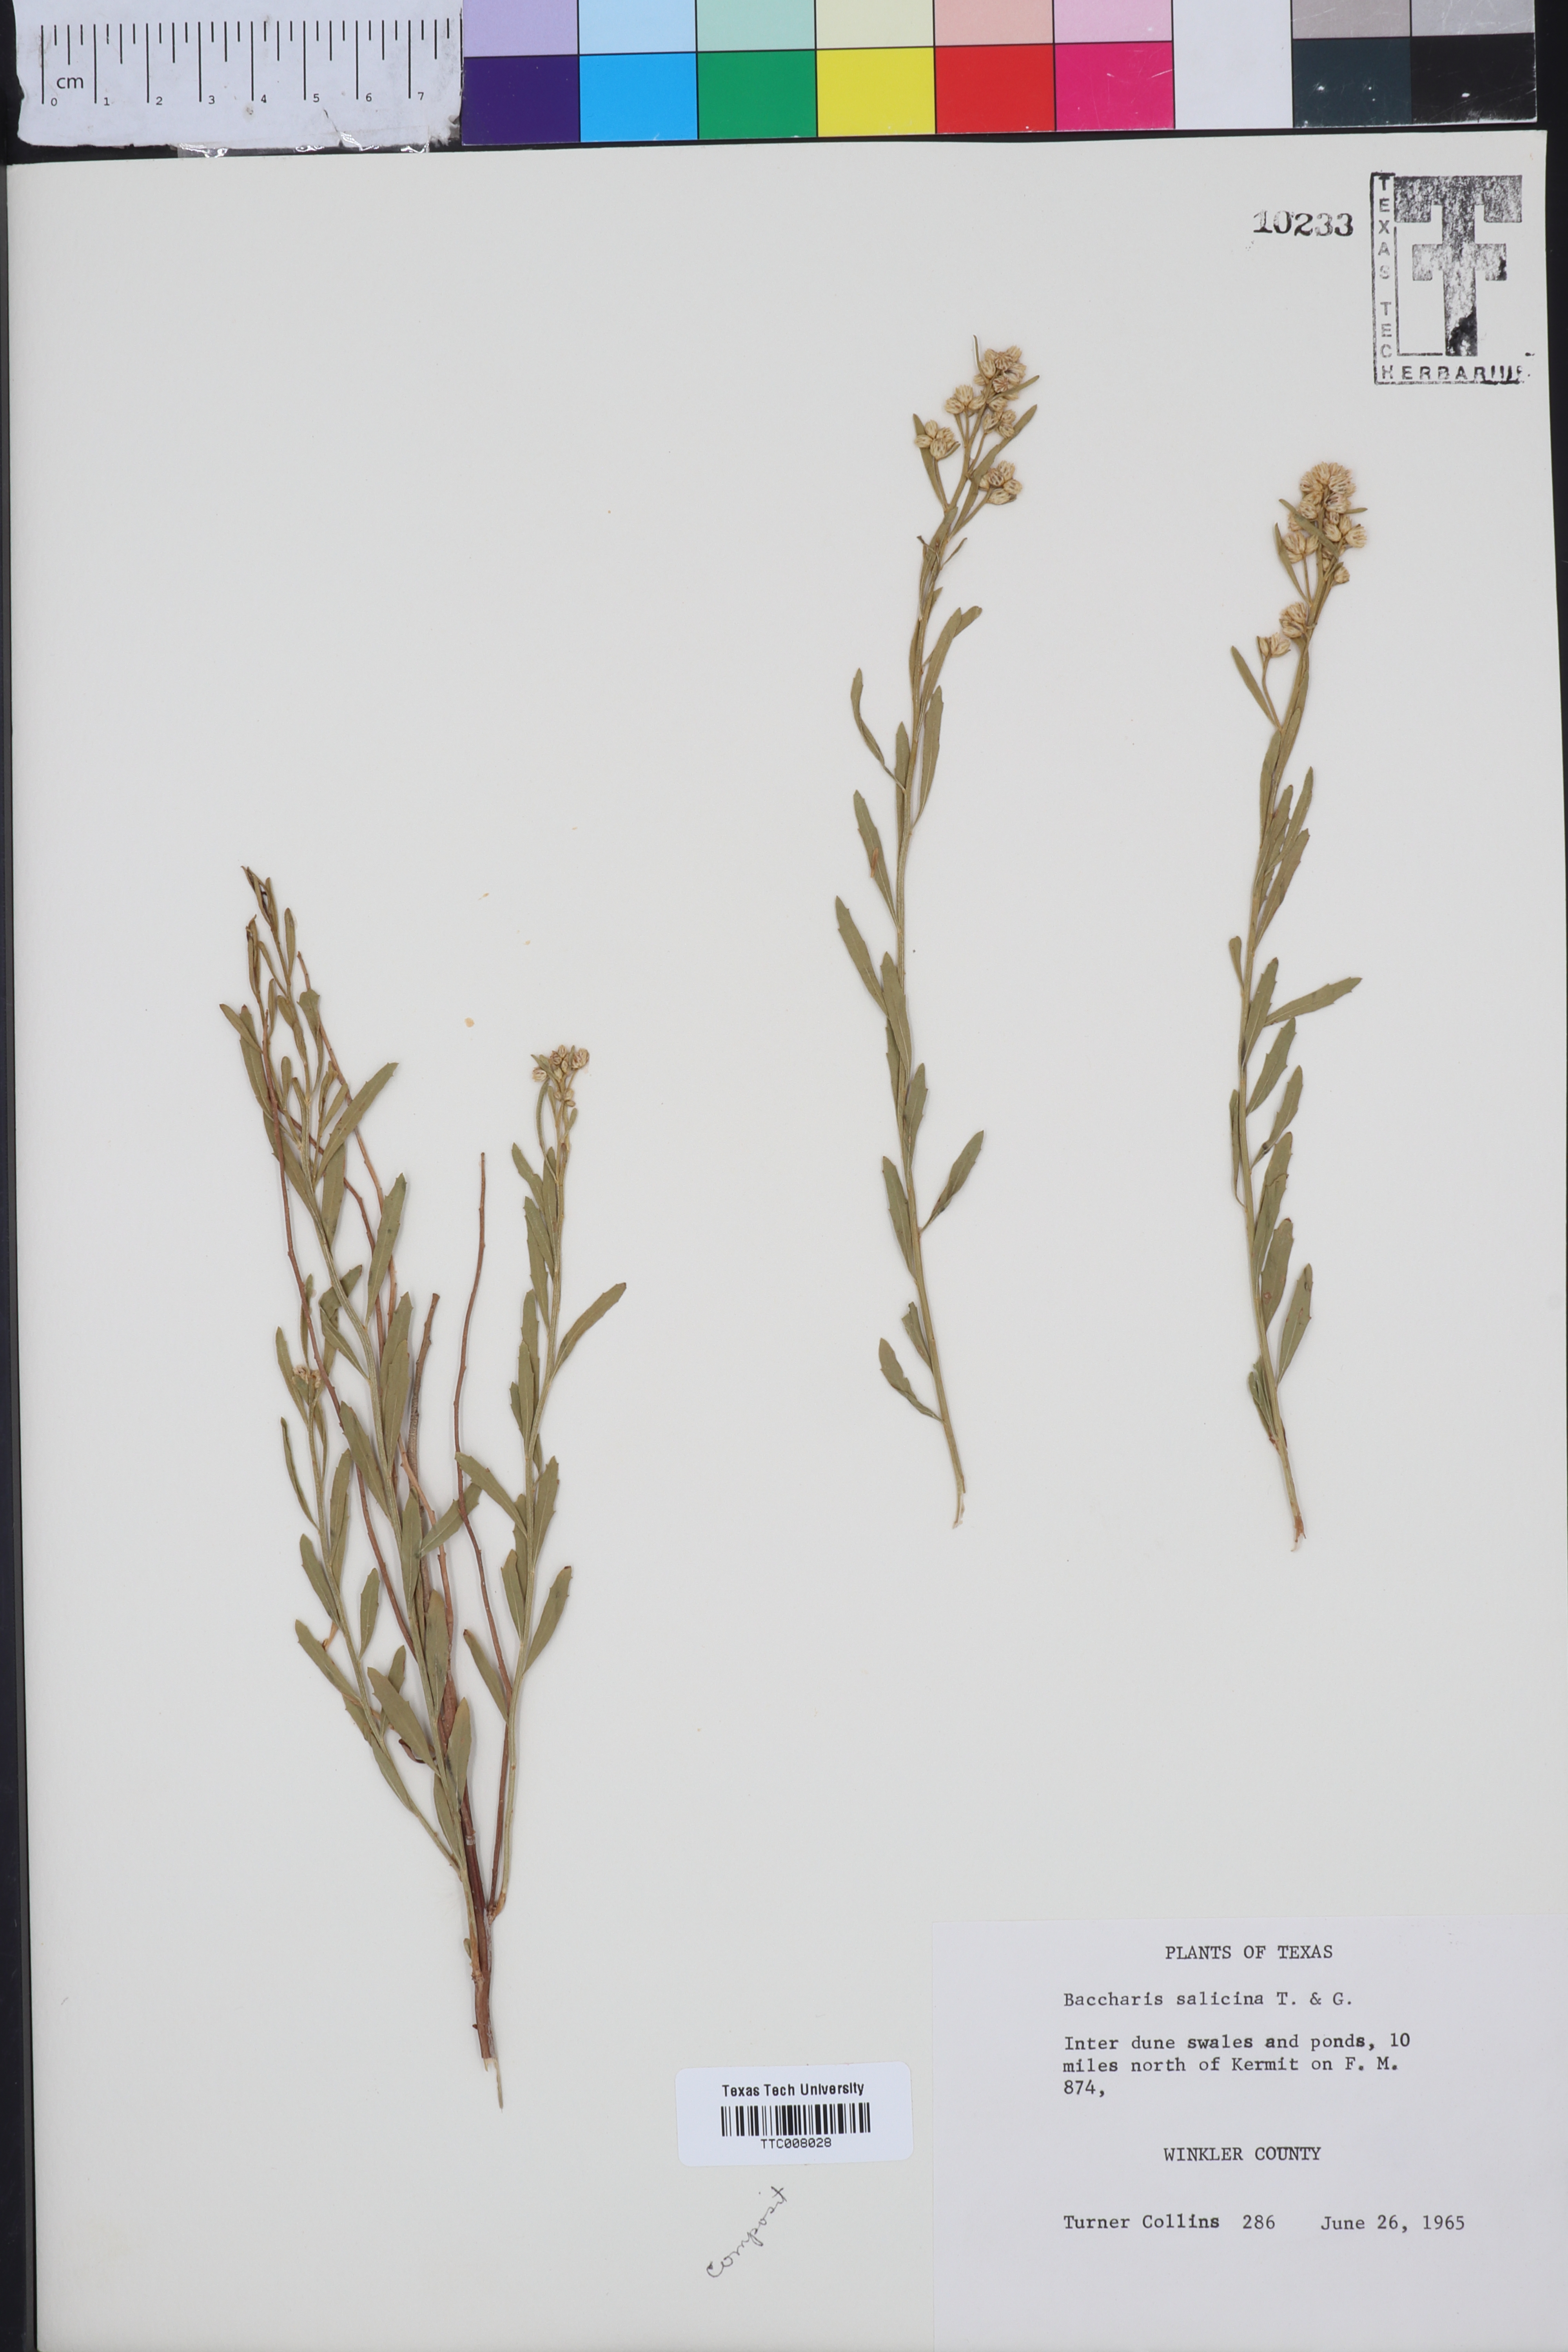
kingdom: Plantae
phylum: Tracheophyta
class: Magnoliopsida
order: Asterales
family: Asteraceae
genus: Baccharis
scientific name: Baccharis salicina
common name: Willow baccharis
